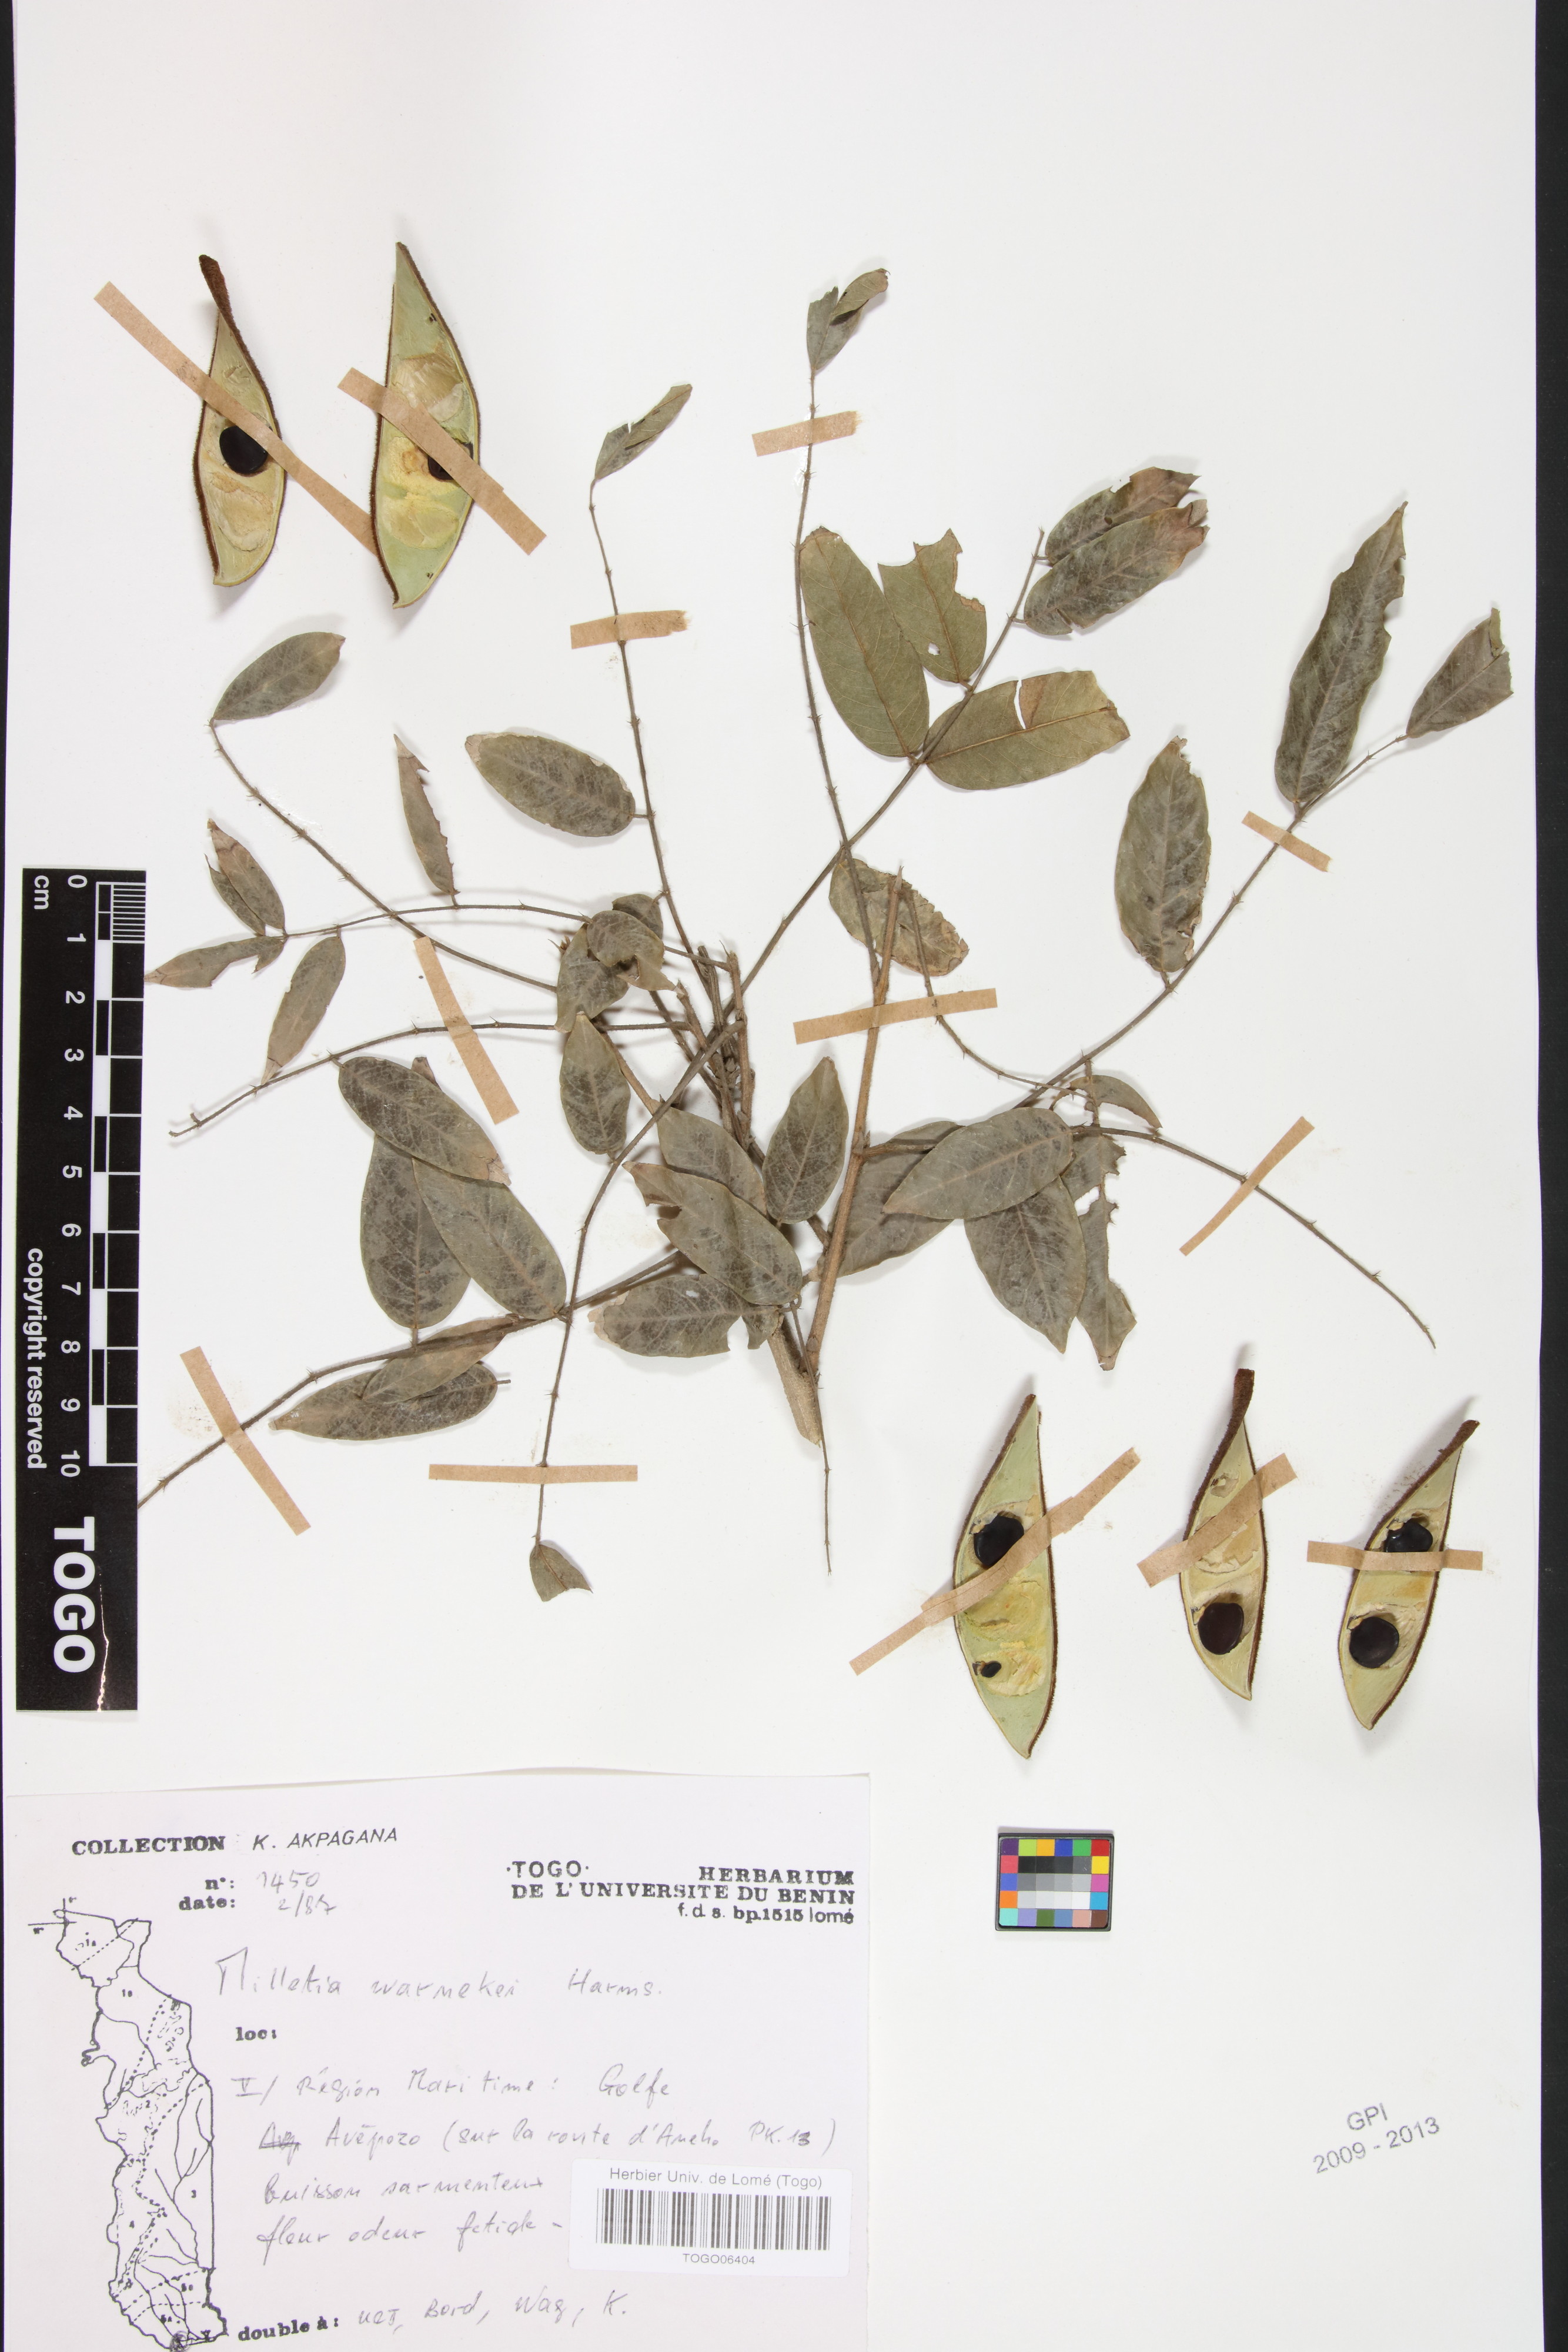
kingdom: Plantae
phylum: Tracheophyta
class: Magnoliopsida
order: Fabales
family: Fabaceae
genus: Millettia
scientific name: Millettia warneckei
